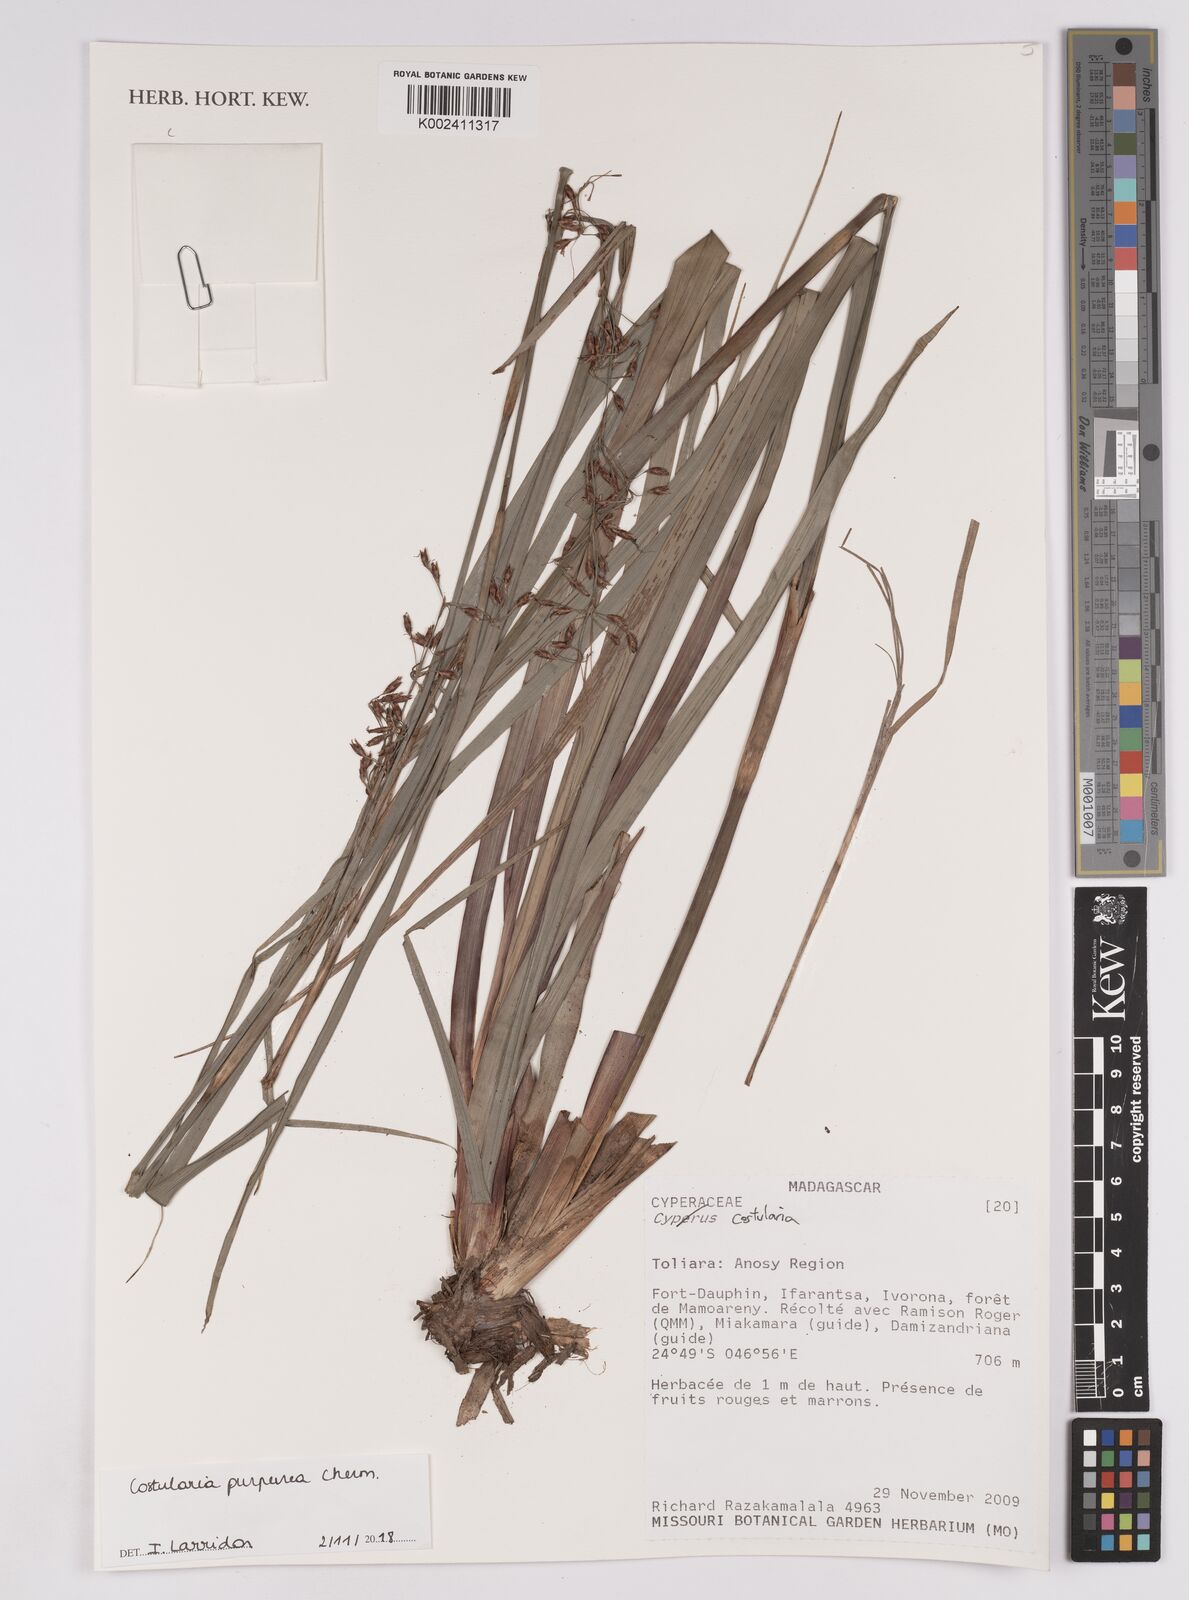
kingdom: Plantae
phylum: Tracheophyta
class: Liliopsida
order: Poales
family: Cyperaceae
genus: Costularia
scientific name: Costularia purpurea
